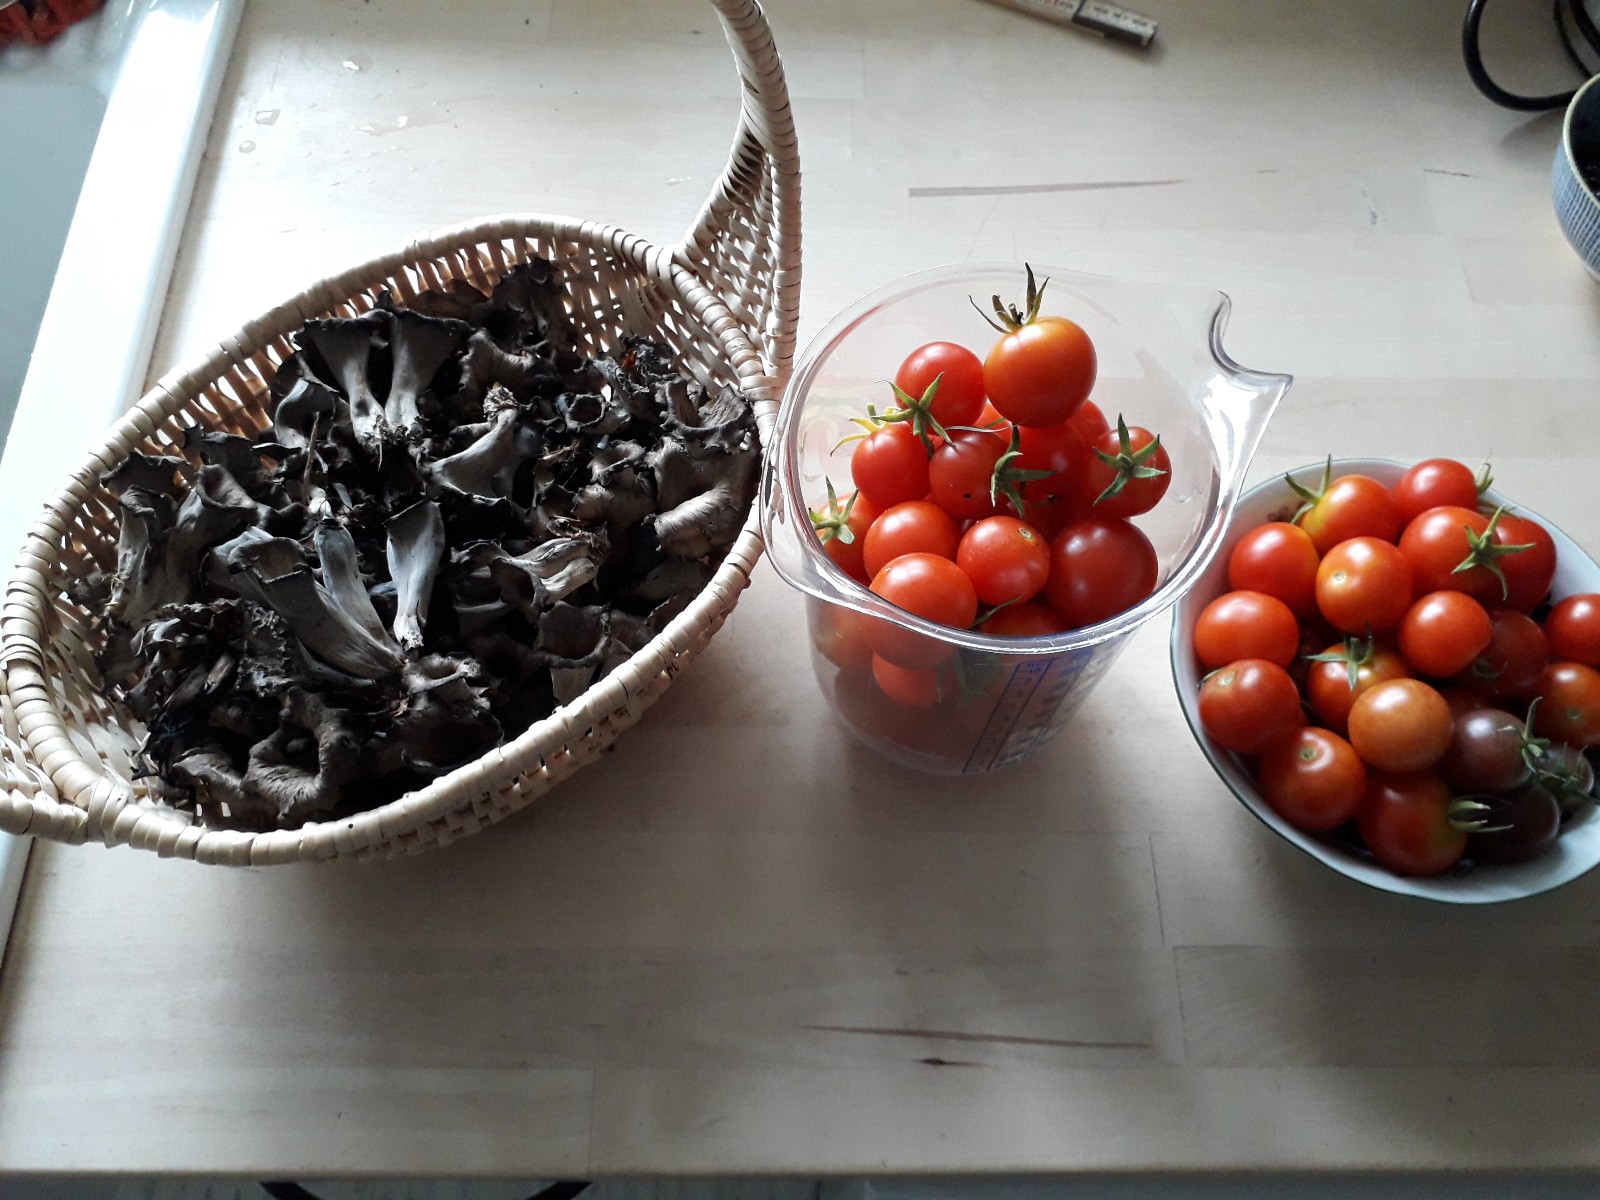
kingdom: Fungi
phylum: Basidiomycota
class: Agaricomycetes
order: Cantharellales
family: Hydnaceae
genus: Craterellus
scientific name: Craterellus cornucopioides
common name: trompetsvamp
